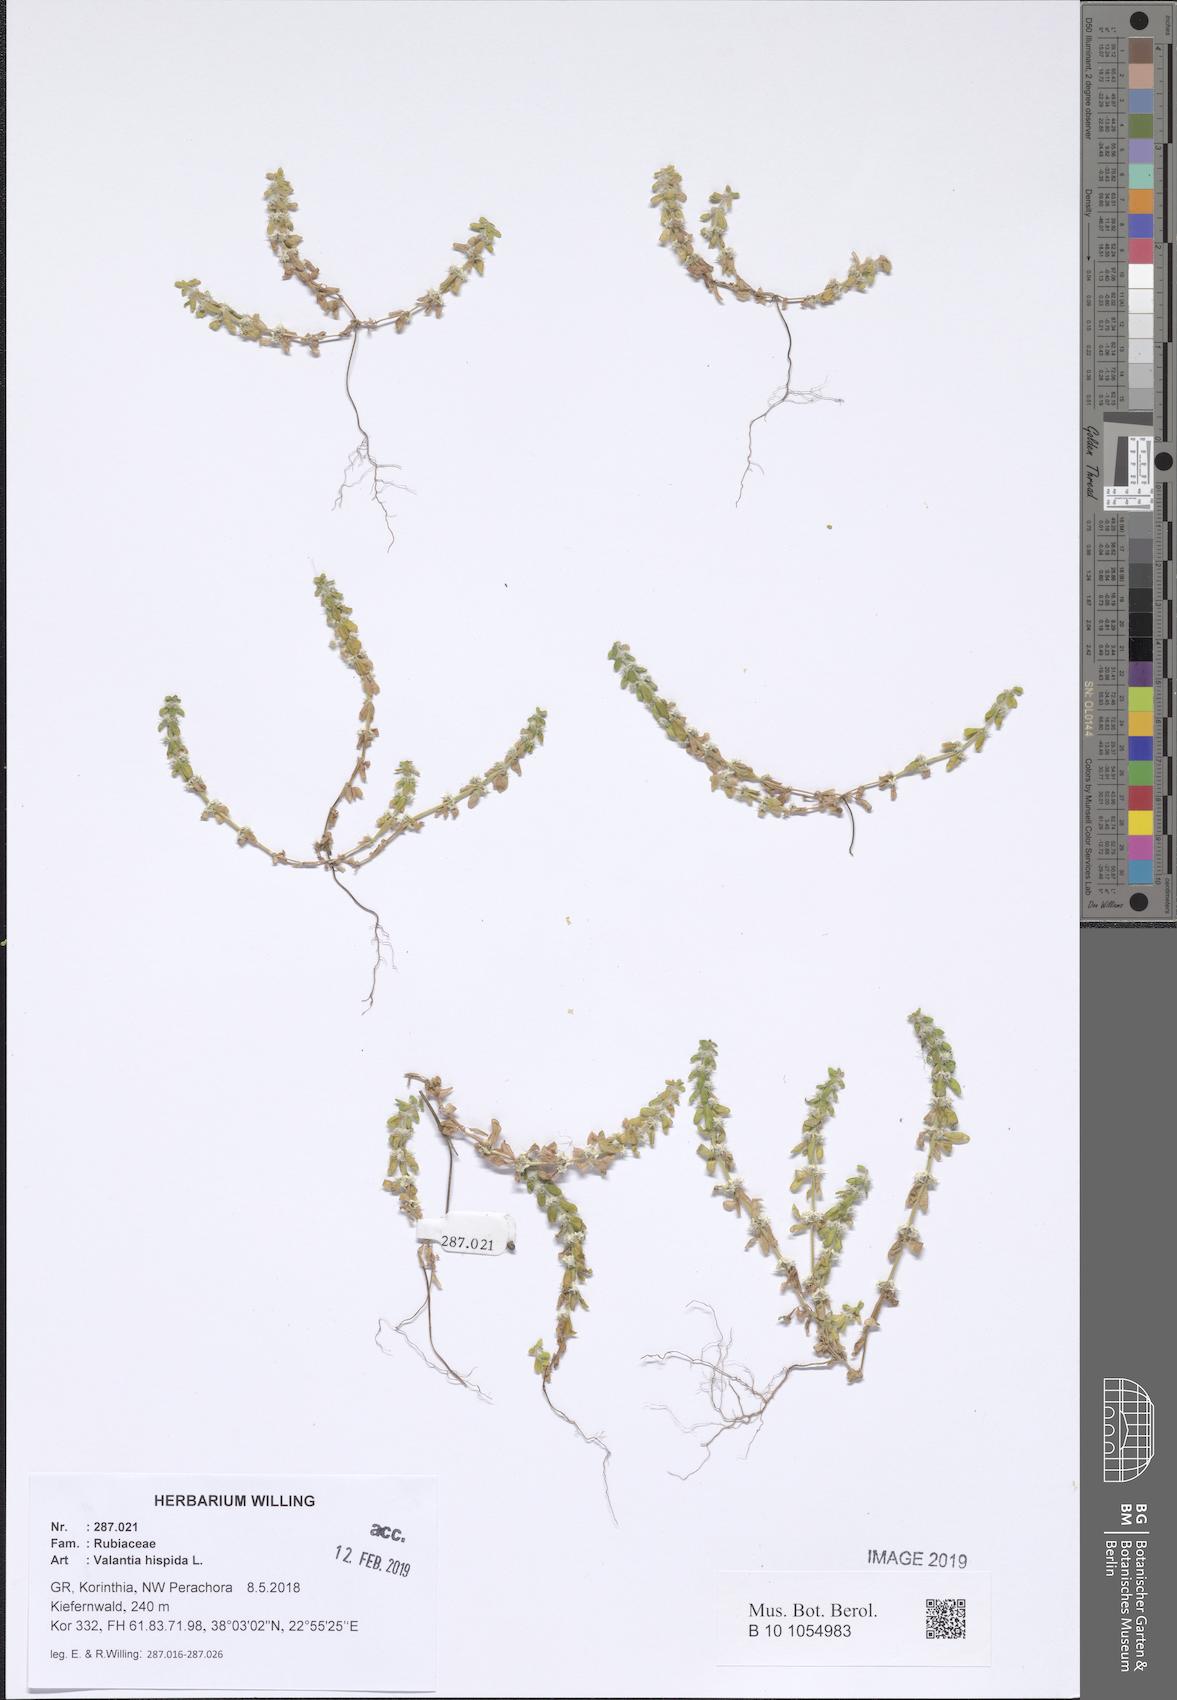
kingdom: Plantae
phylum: Tracheophyta
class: Magnoliopsida
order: Gentianales
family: Rubiaceae
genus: Valantia
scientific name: Valantia hispida
